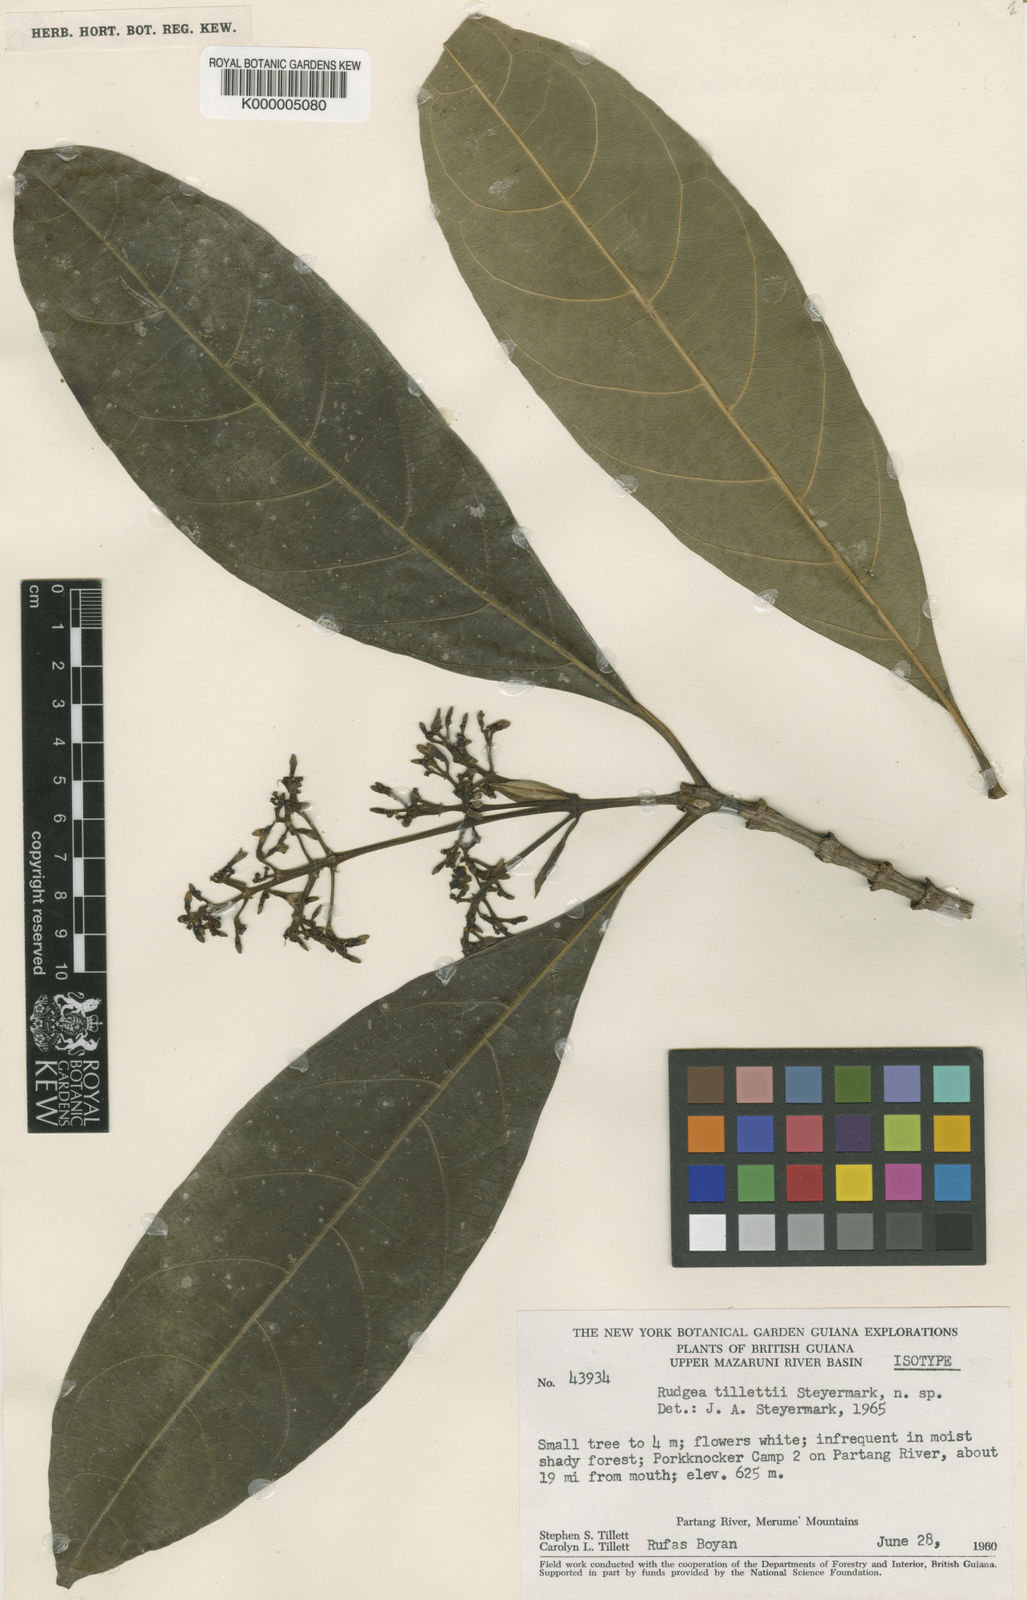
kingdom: Plantae
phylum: Tracheophyta
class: Magnoliopsida
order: Gentianales
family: Rubiaceae
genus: Palicourea
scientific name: Palicourea coussareoides
